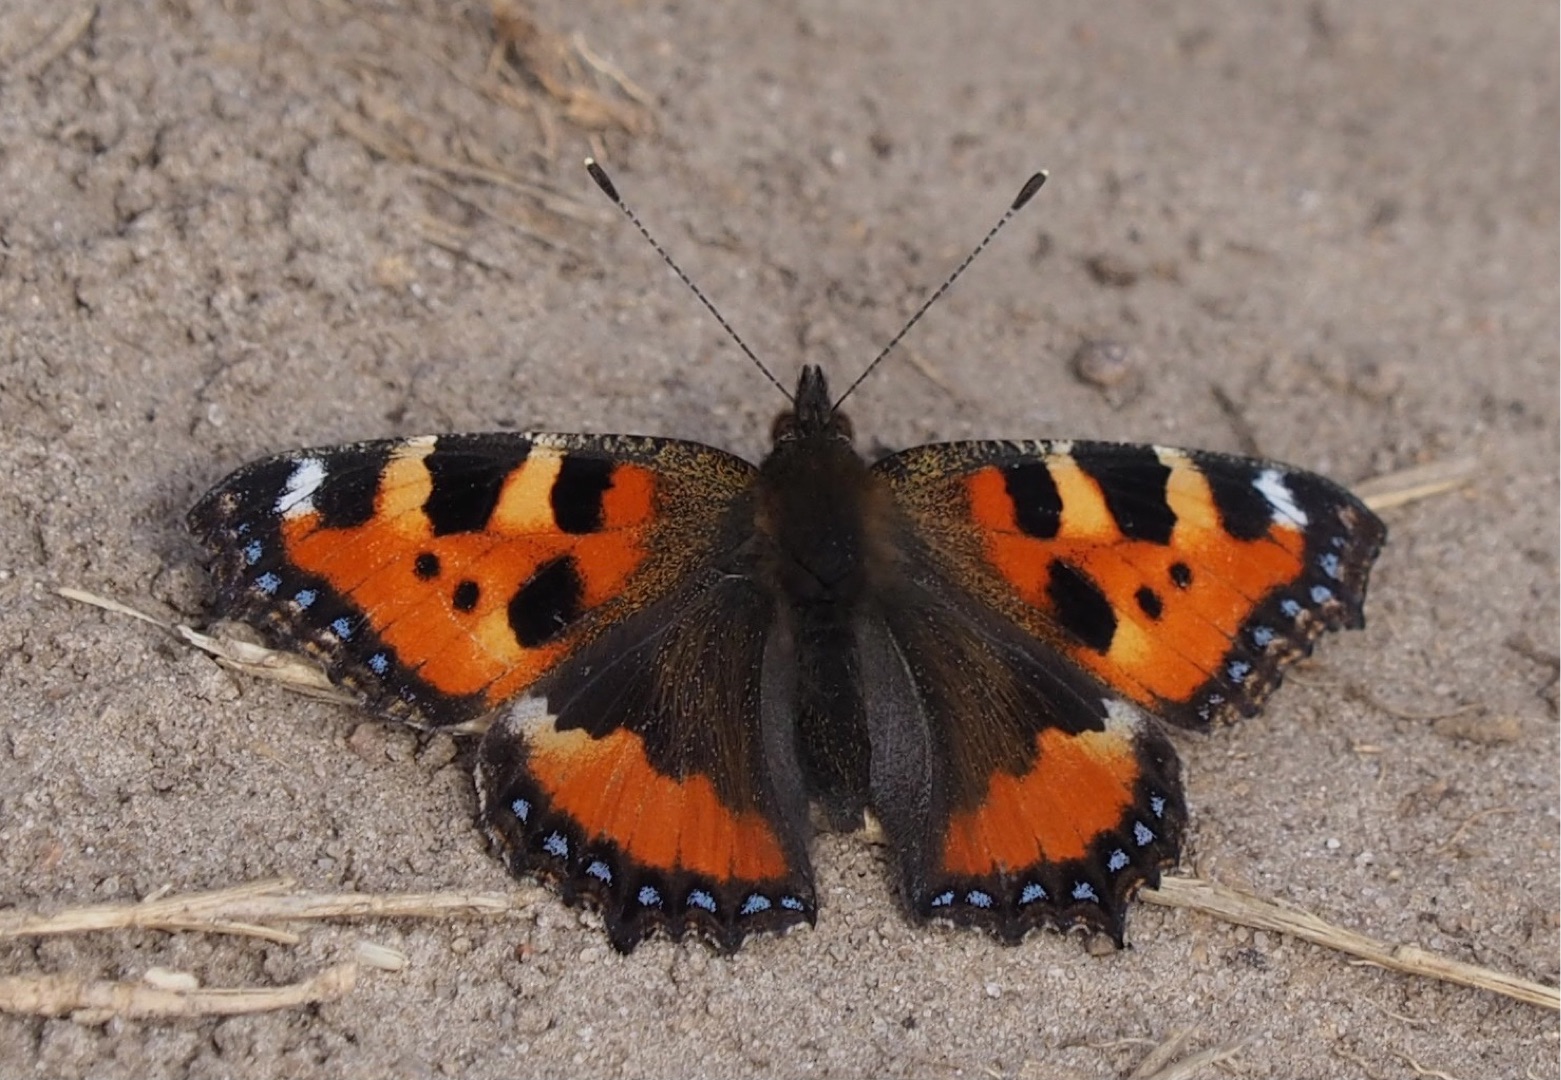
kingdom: Animalia
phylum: Arthropoda
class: Insecta
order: Lepidoptera
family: Nymphalidae
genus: Aglais
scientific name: Aglais urticae
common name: Nældens takvinge
